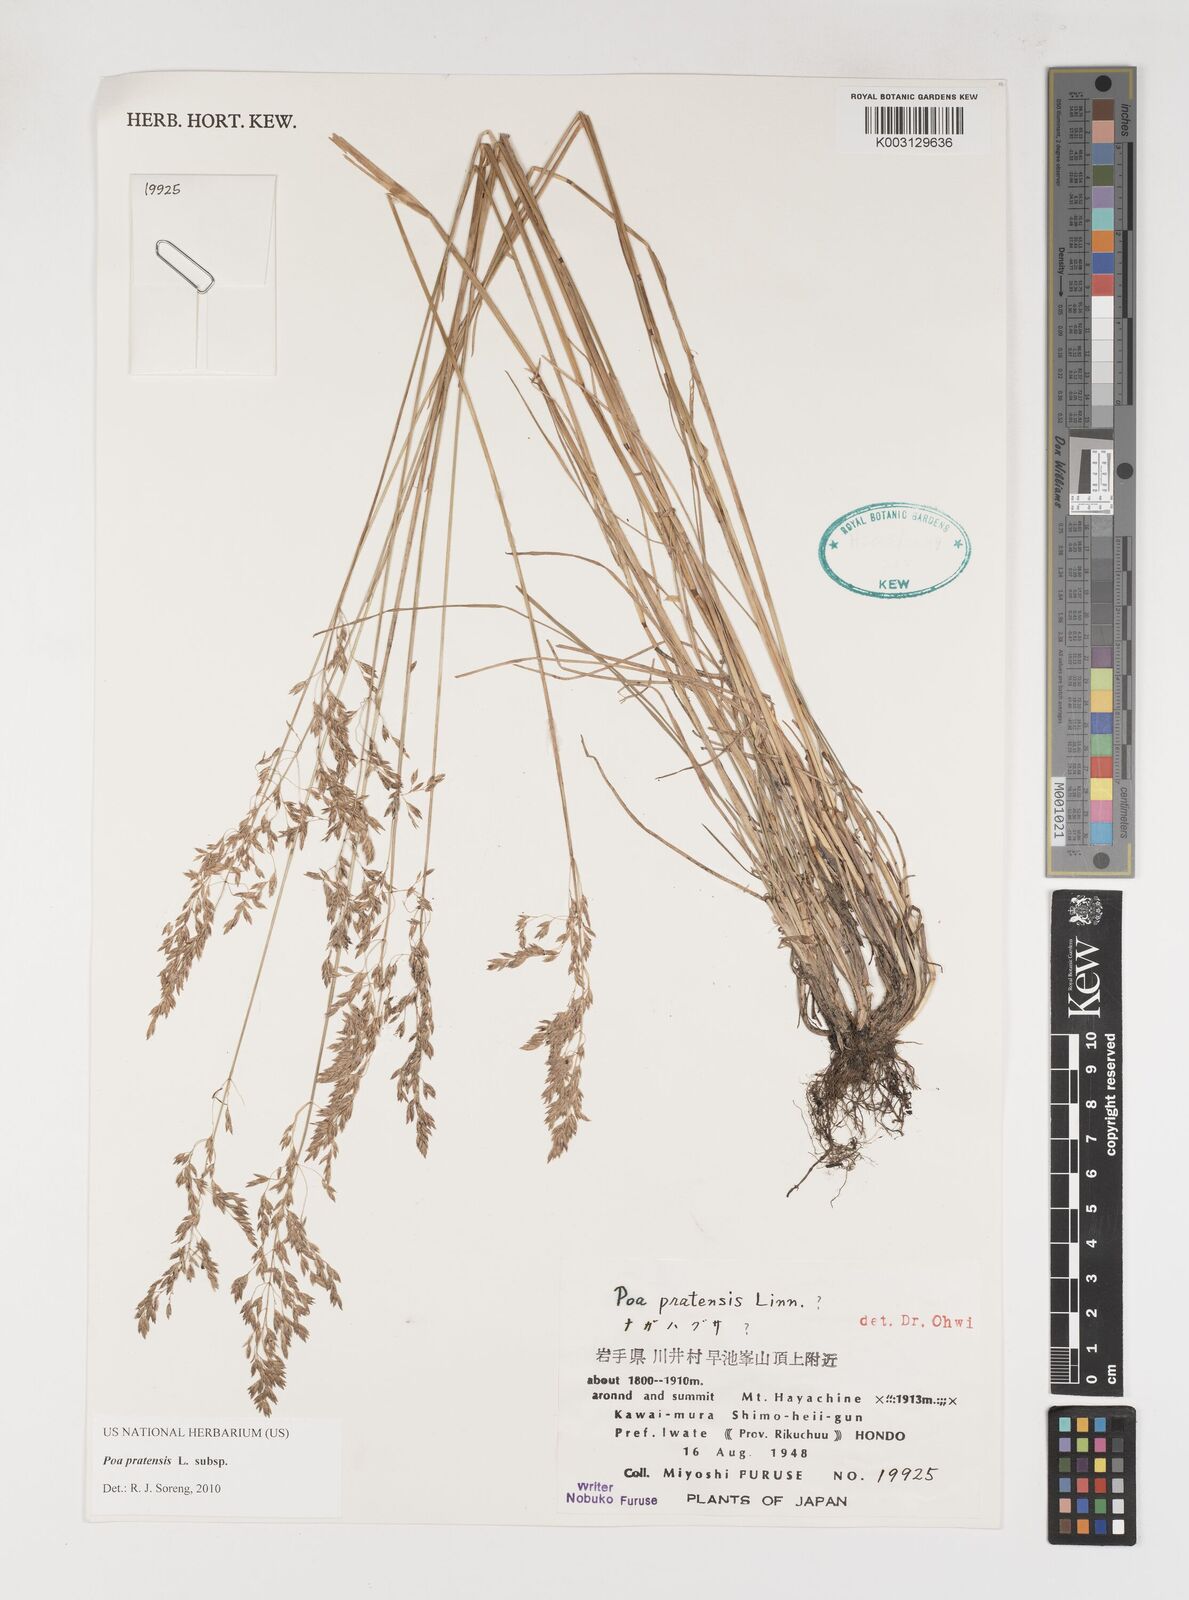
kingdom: Plantae
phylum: Tracheophyta
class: Liliopsida
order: Poales
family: Poaceae
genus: Poa
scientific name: Poa angustifolia
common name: Narrow-leaved meadow-grass
